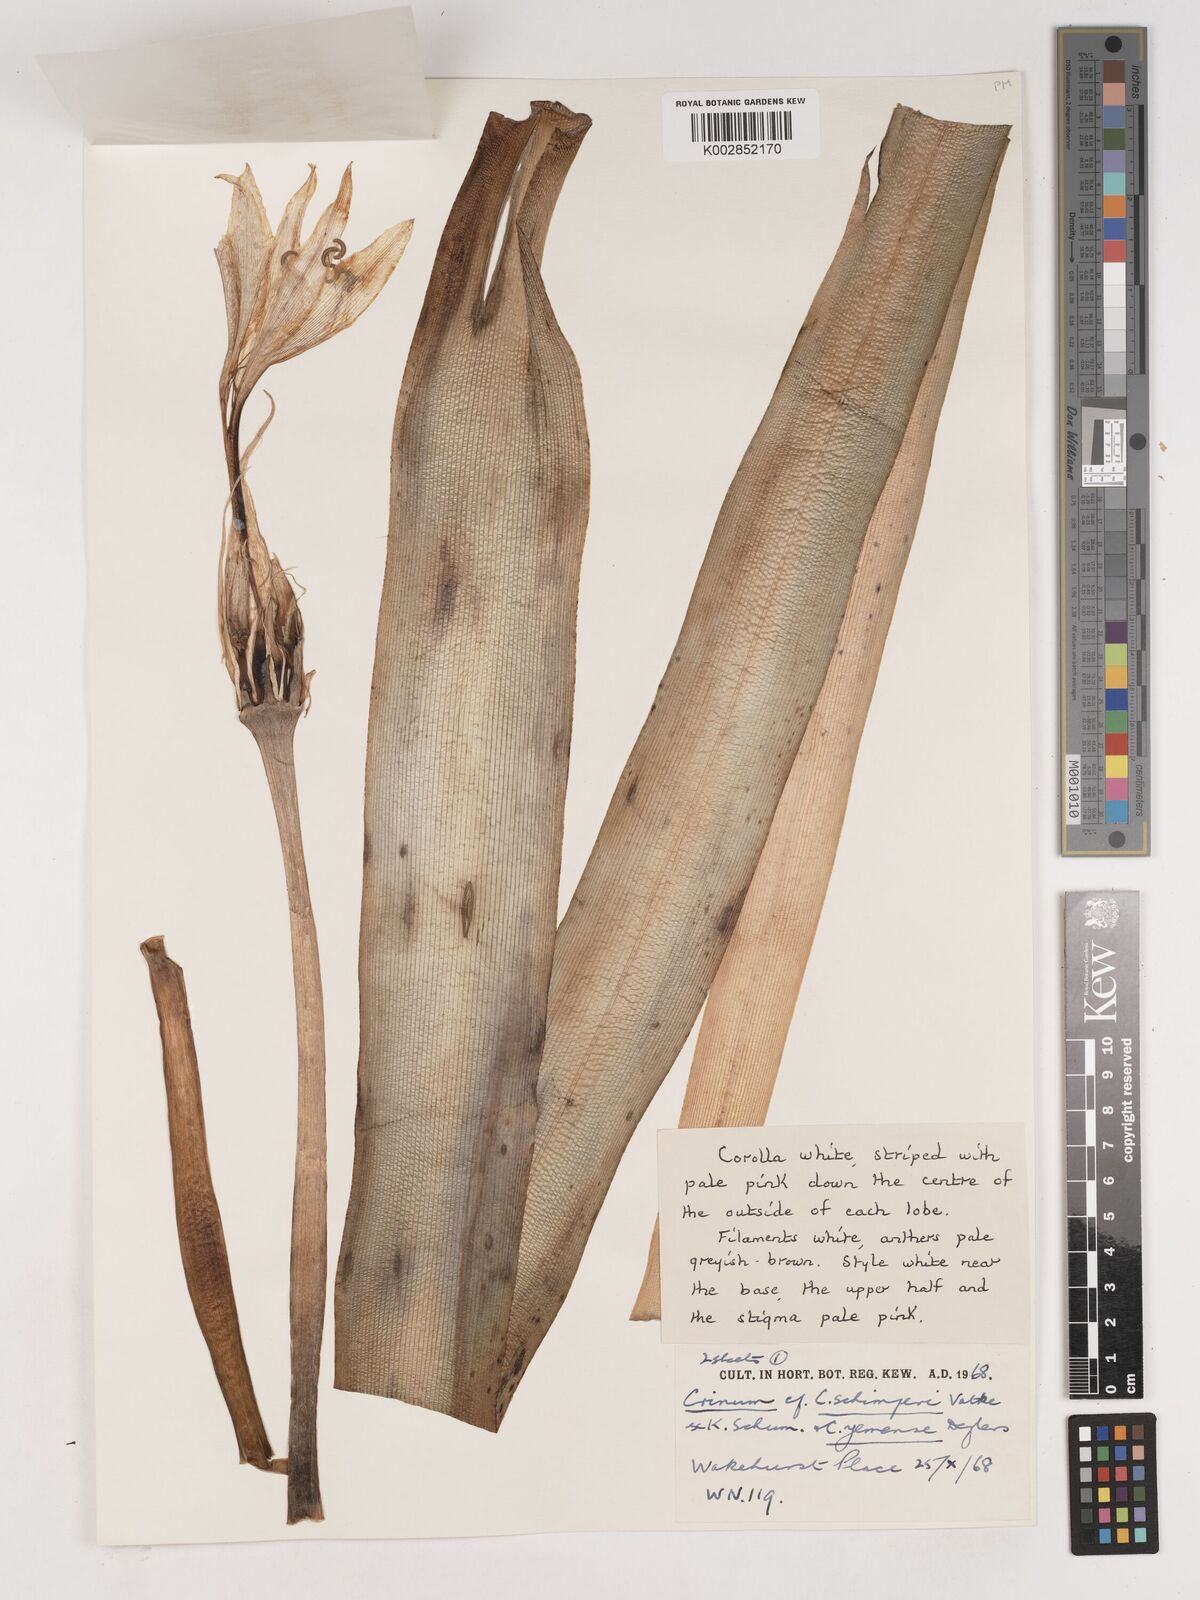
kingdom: Plantae
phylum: Tracheophyta
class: Liliopsida
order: Asparagales
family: Amaryllidaceae
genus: Crinum
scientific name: Crinum abyssinicum
